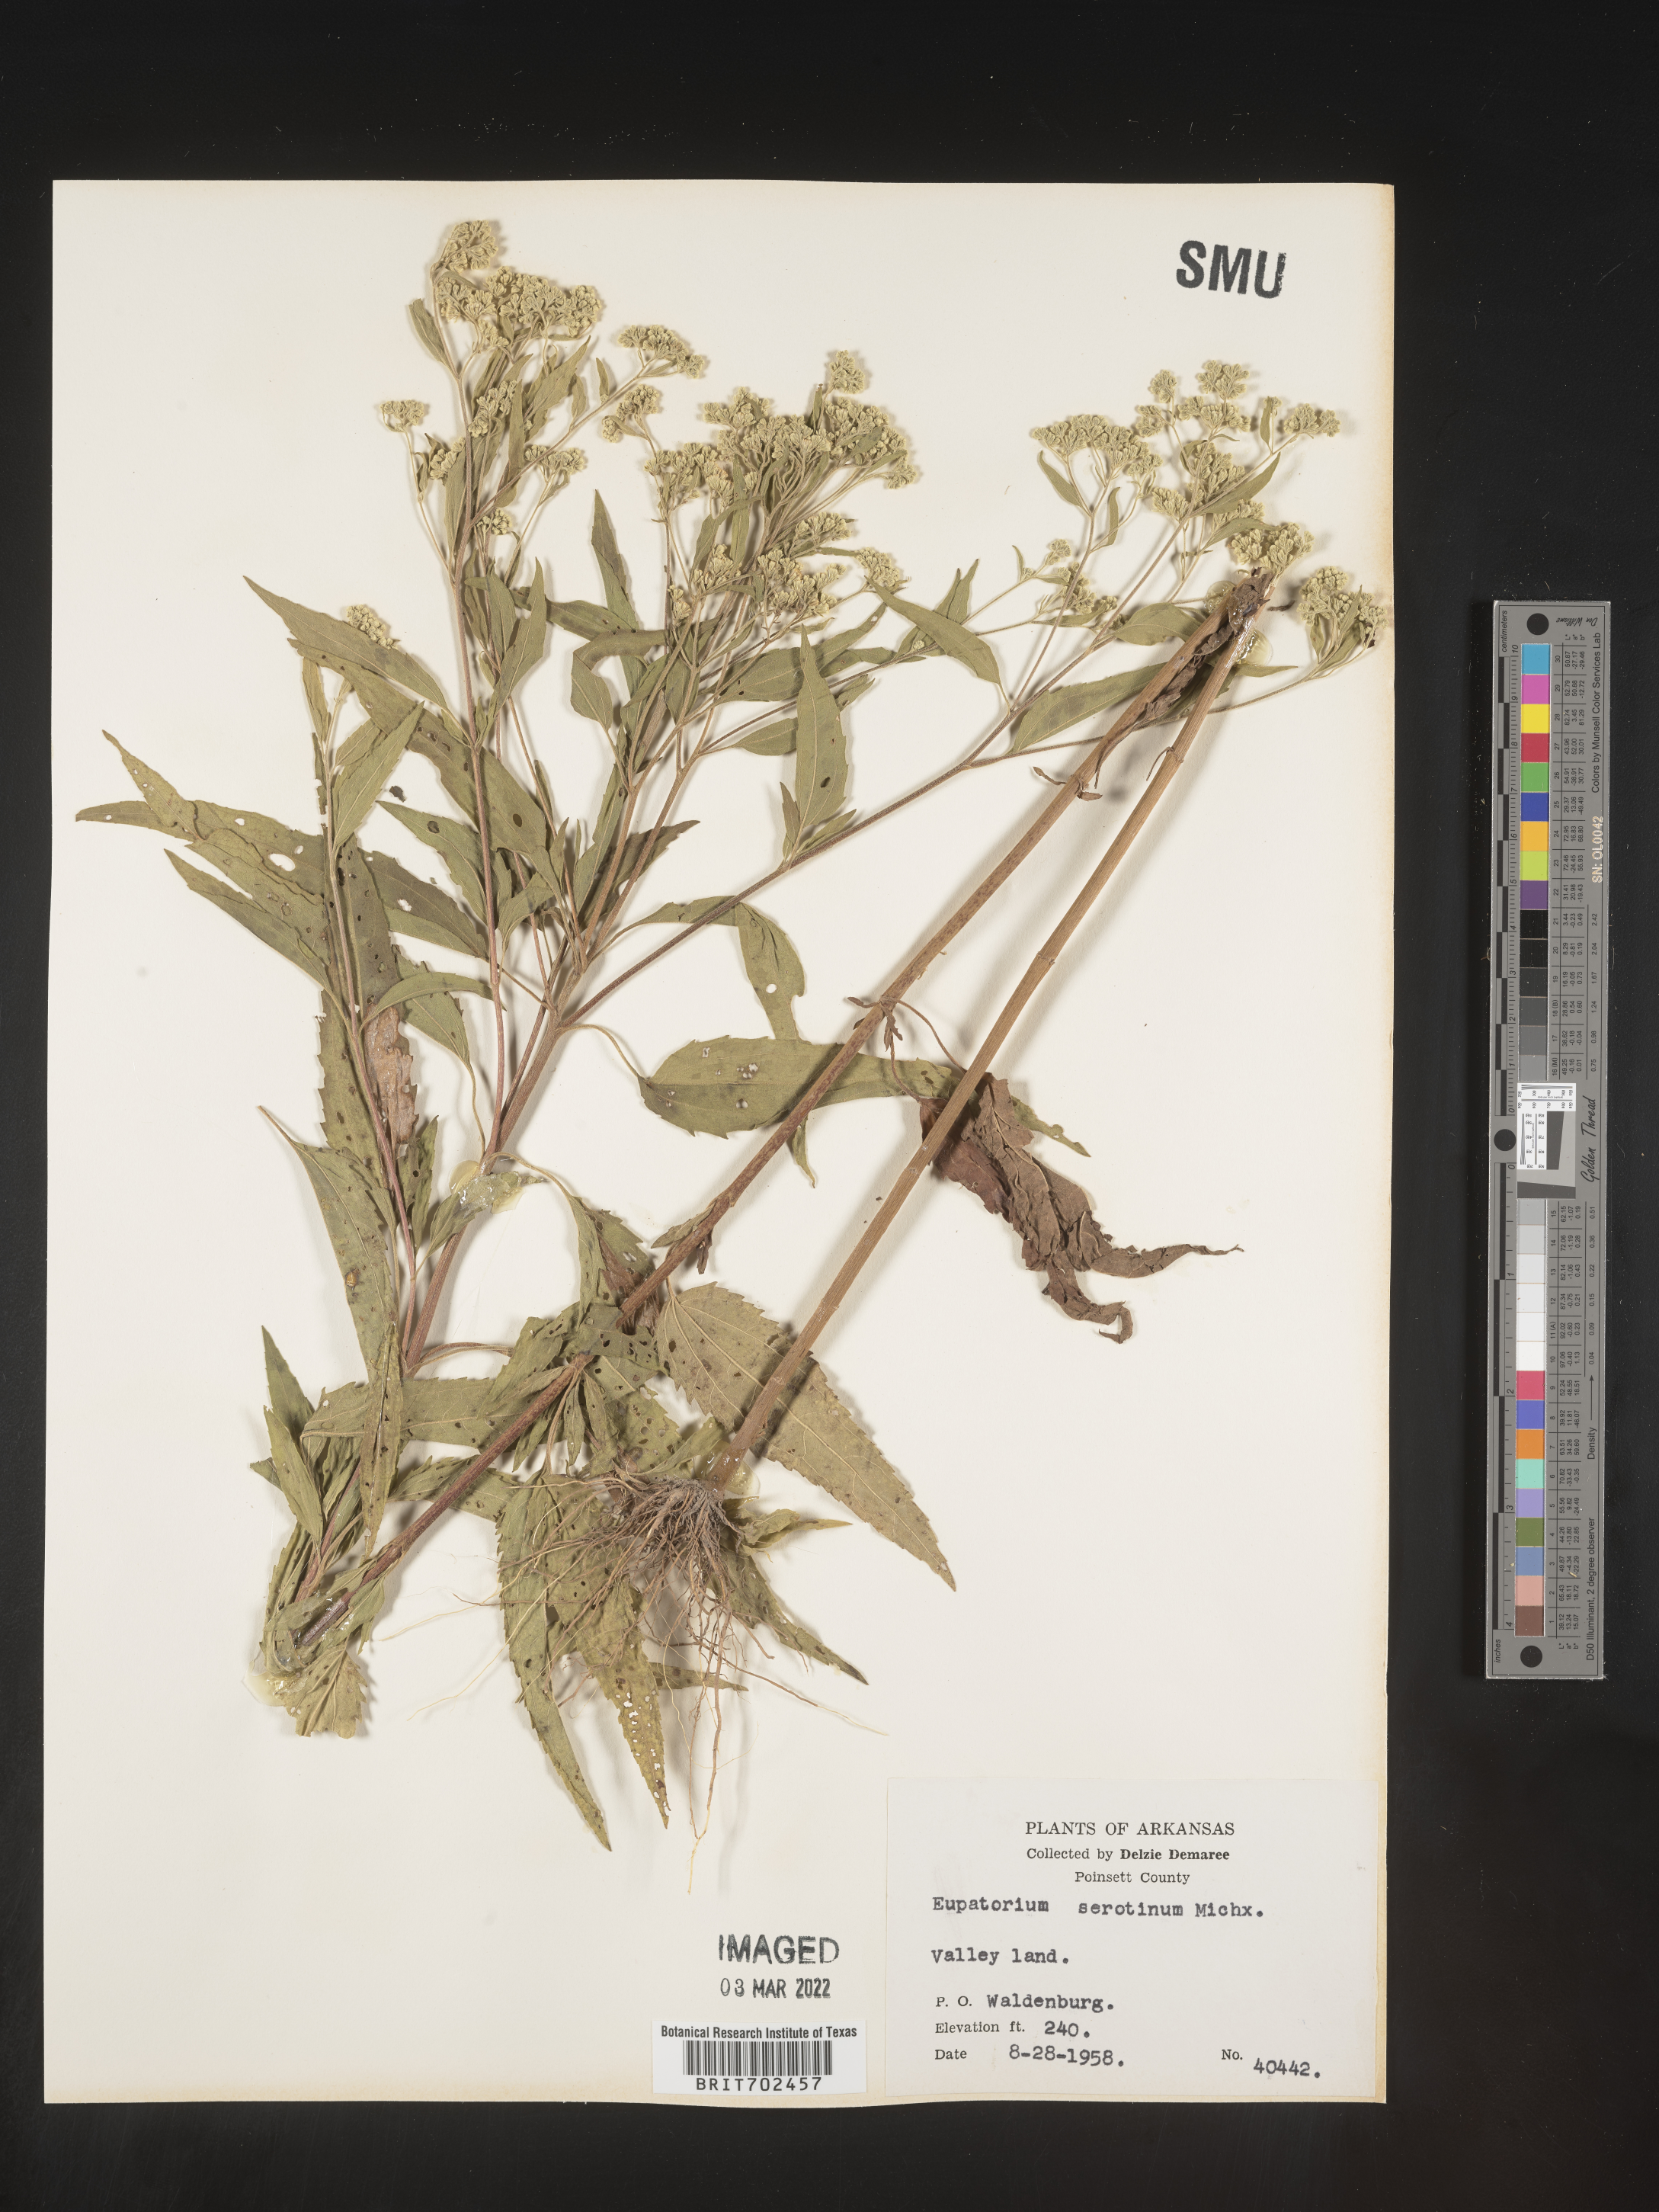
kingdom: Plantae
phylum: Tracheophyta
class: Magnoliopsida
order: Asterales
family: Asteraceae
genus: Eupatorium
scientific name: Eupatorium serotinum
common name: Late boneset
